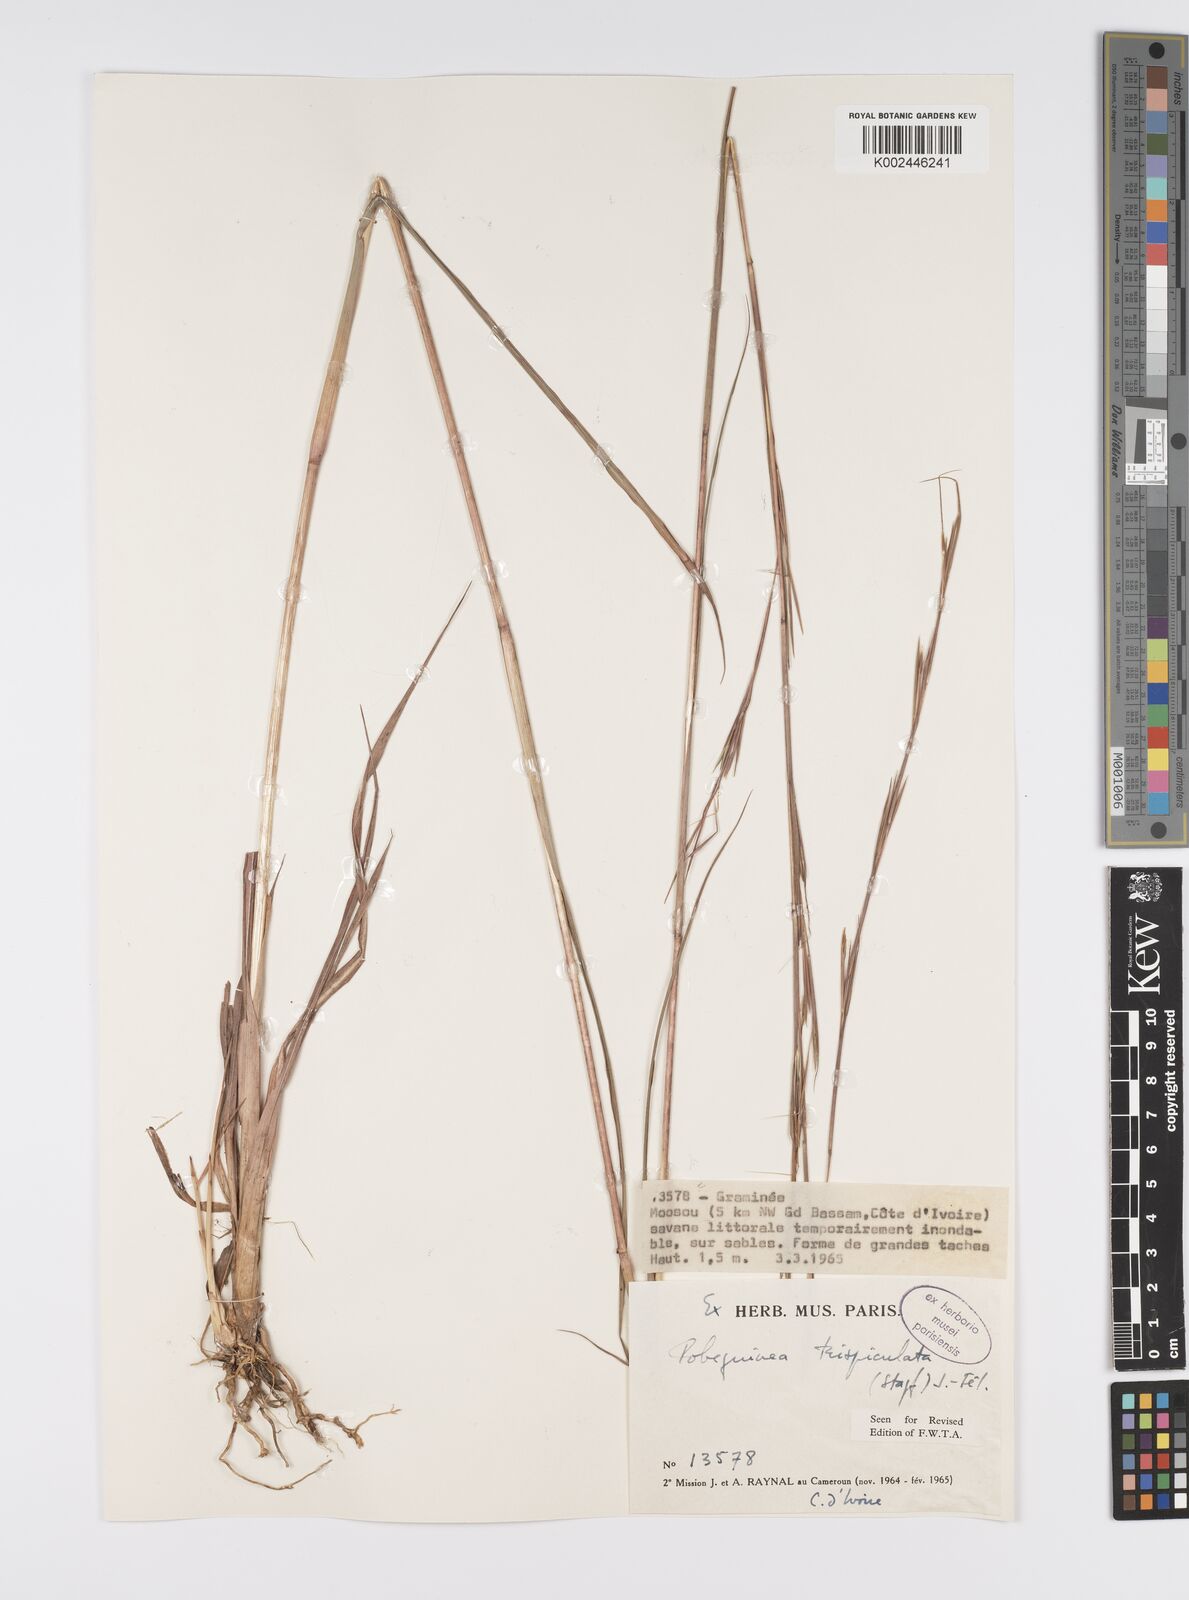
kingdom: Plantae
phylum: Tracheophyta
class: Liliopsida
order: Poales
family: Poaceae
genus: Anadelphia
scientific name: Anadelphia trispiculata
